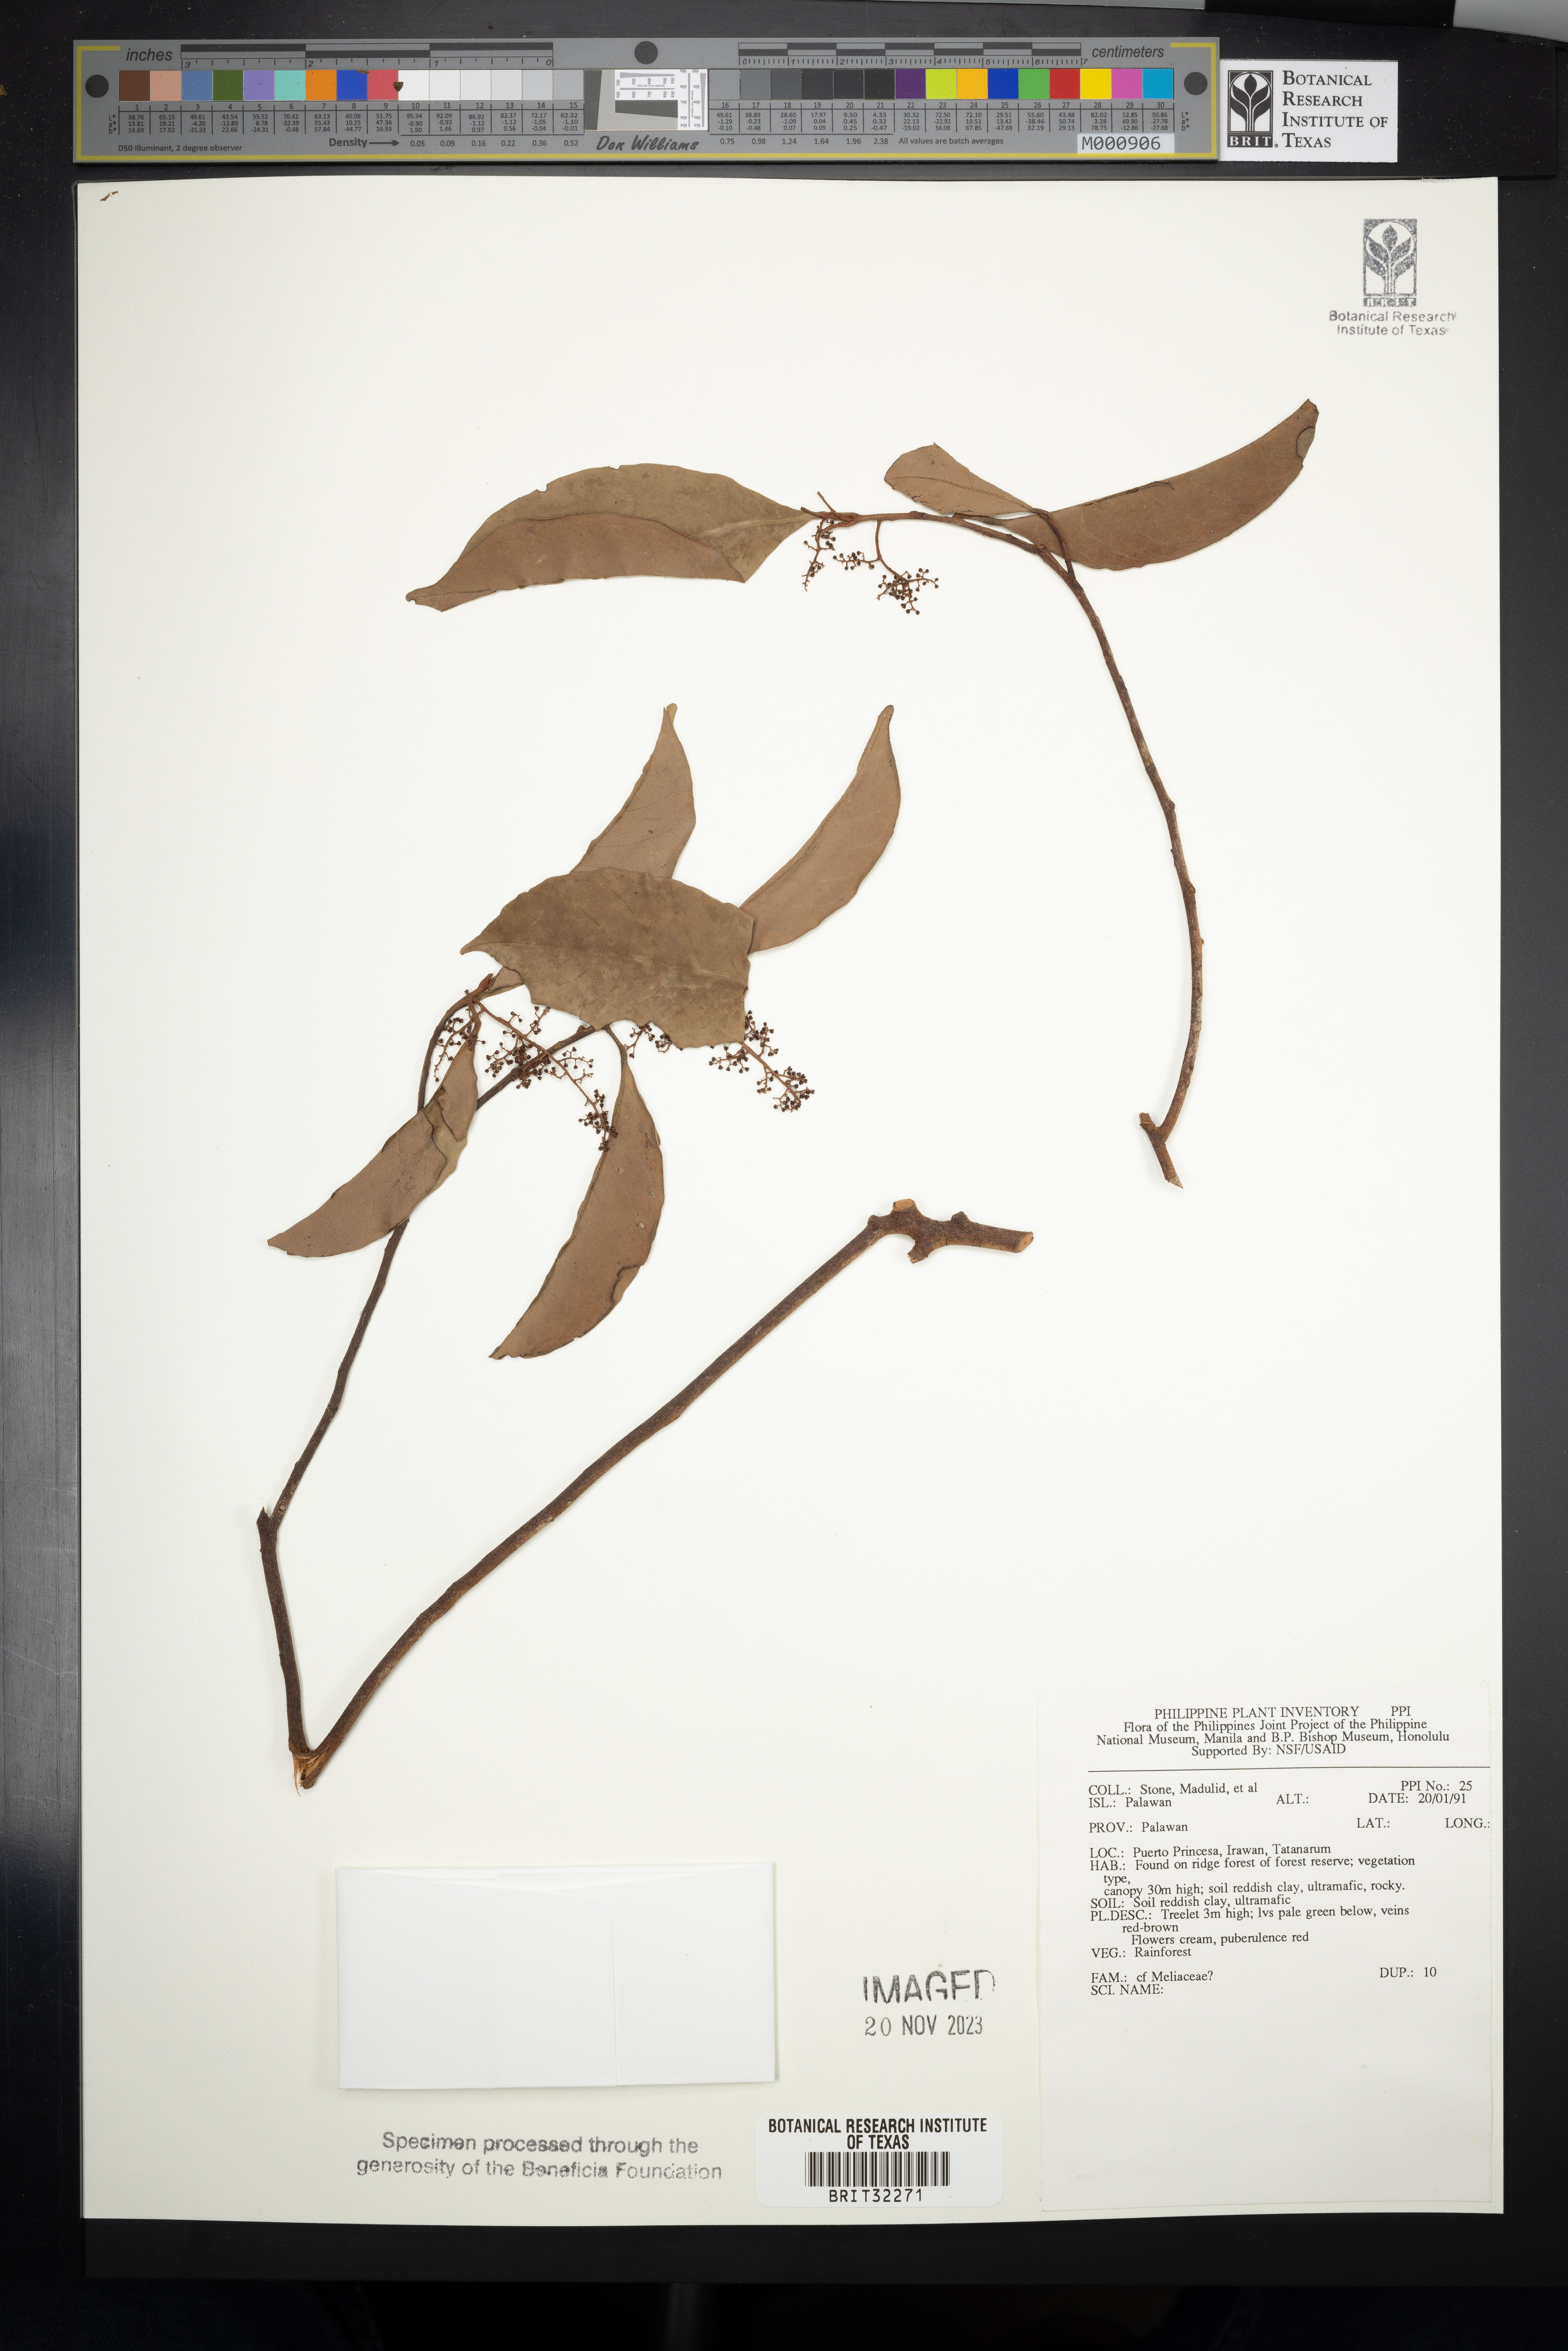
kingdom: Plantae
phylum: Tracheophyta
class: Magnoliopsida
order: Sapindales
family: Meliaceae
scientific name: Meliaceae
